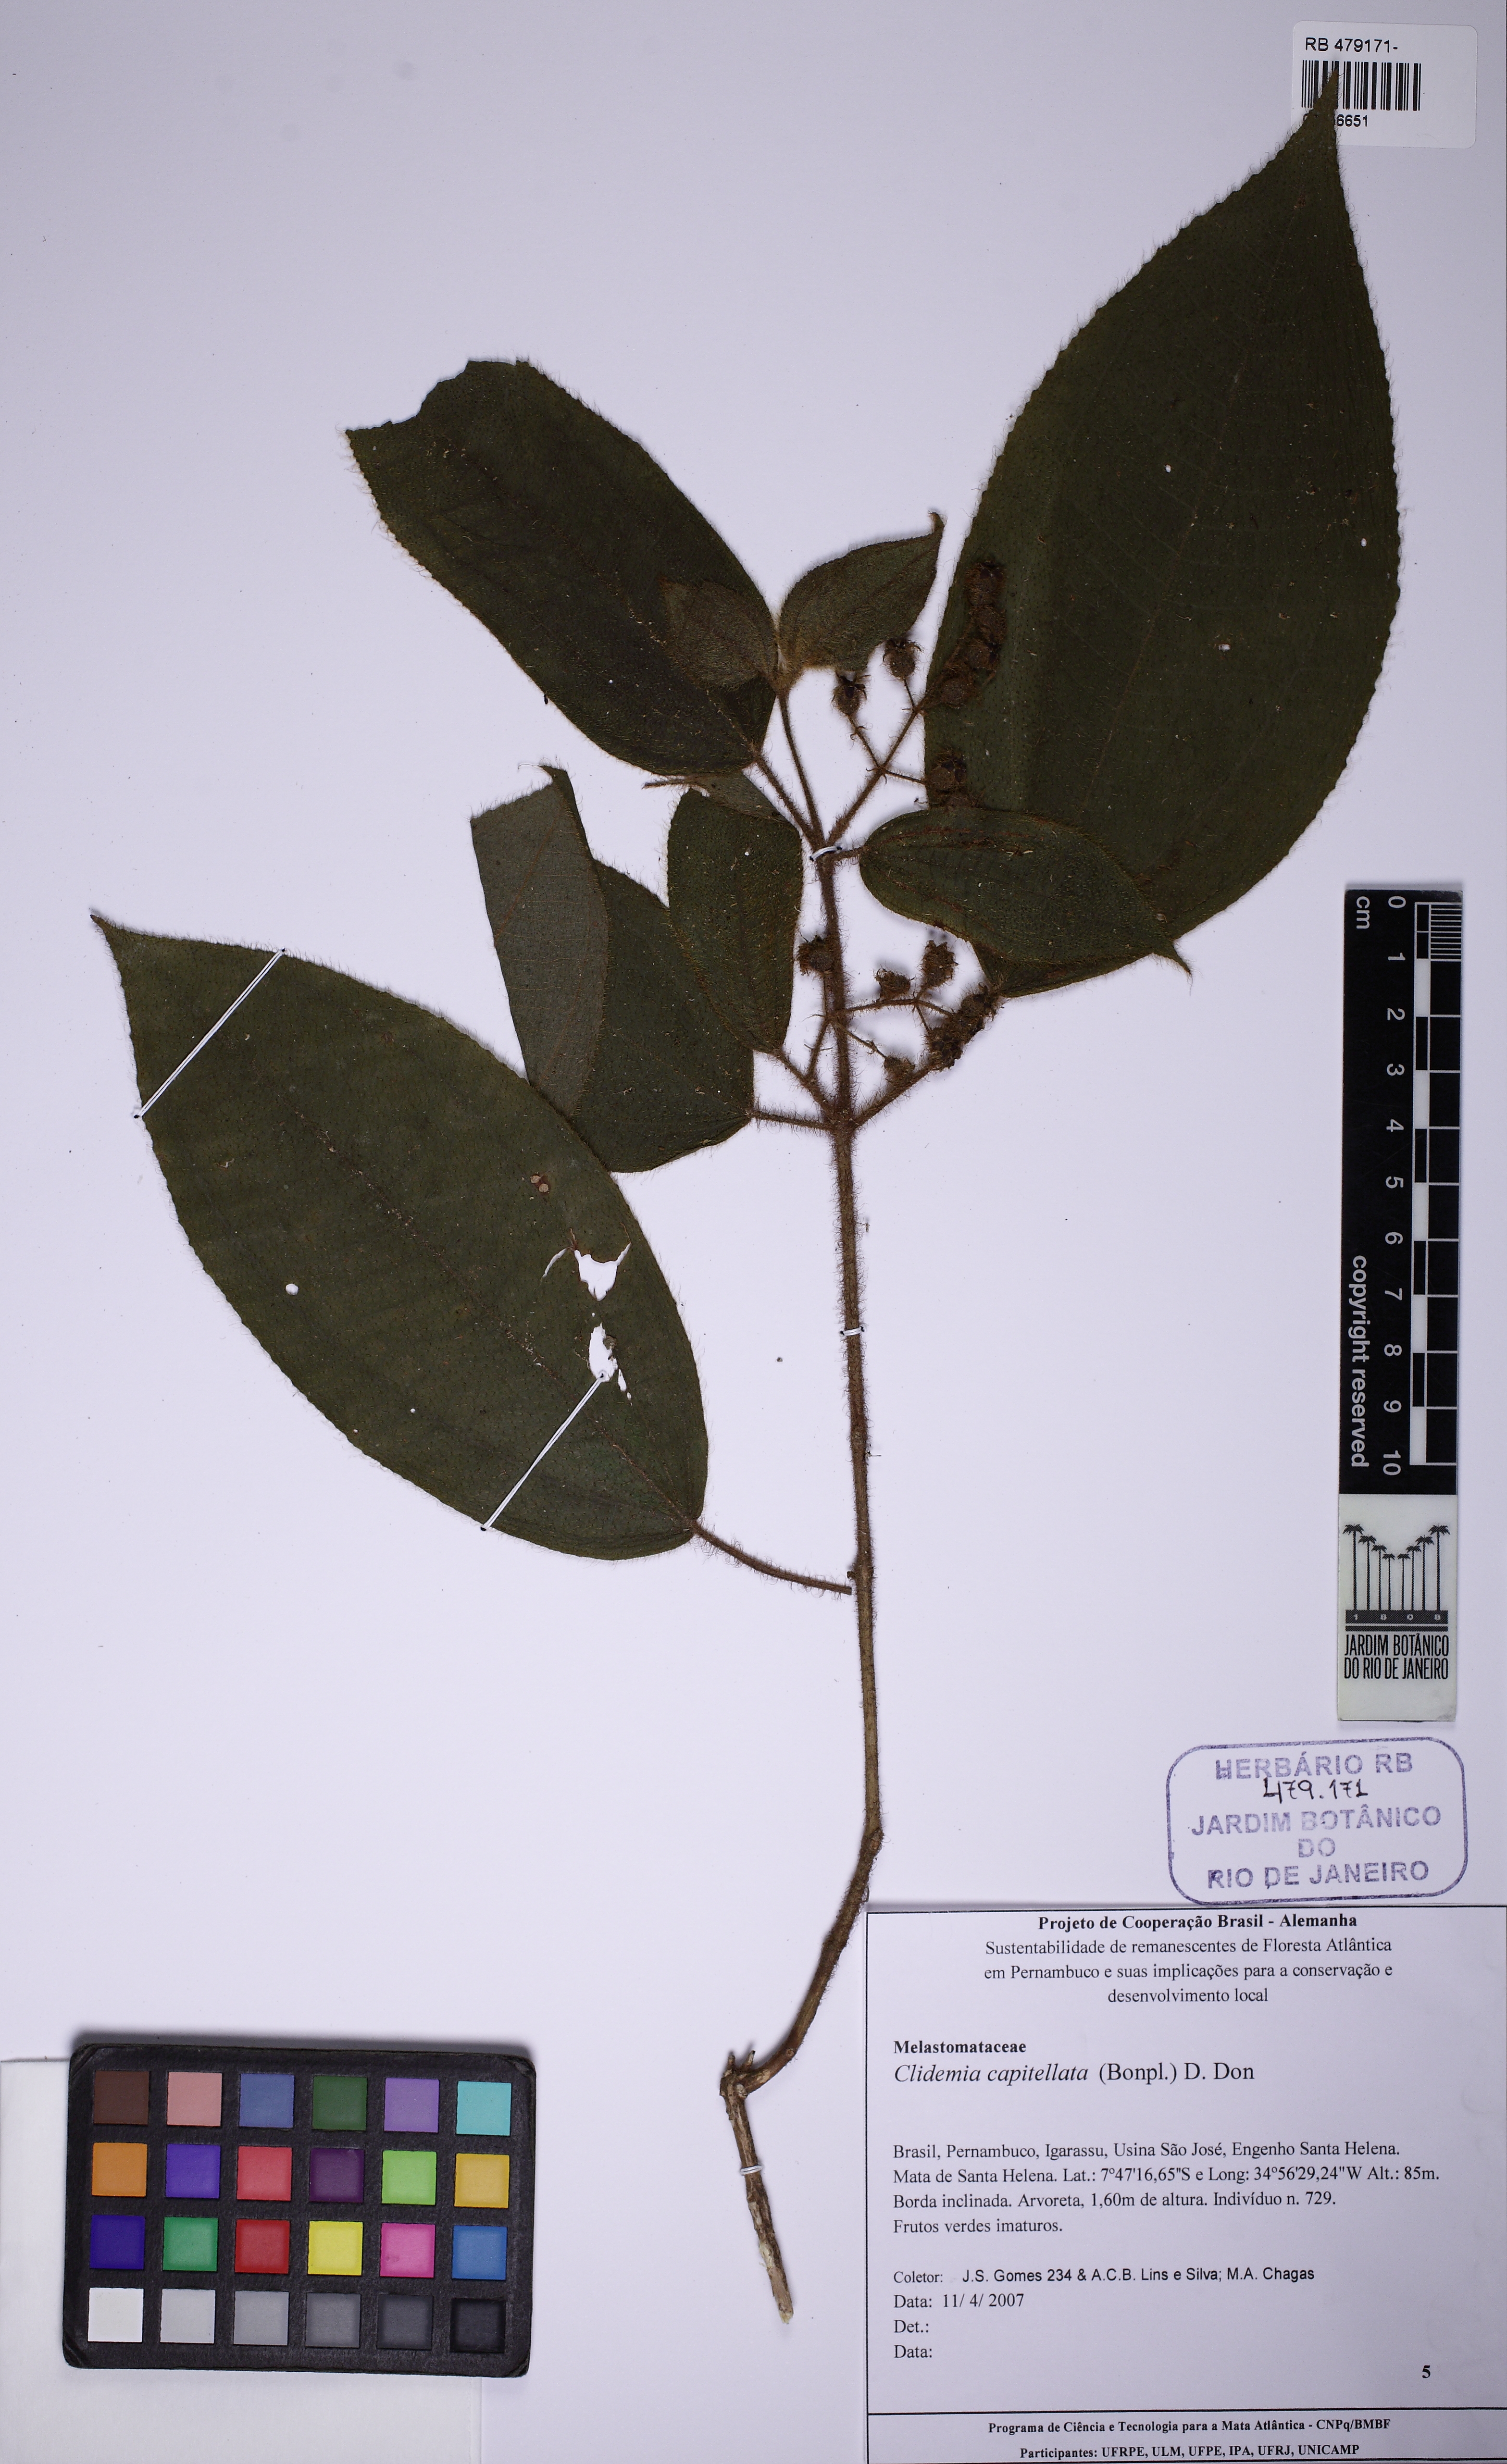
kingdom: Plantae
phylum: Tracheophyta
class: Magnoliopsida
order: Myrtales
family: Melastomataceae
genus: Miconia
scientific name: Miconia dependens
